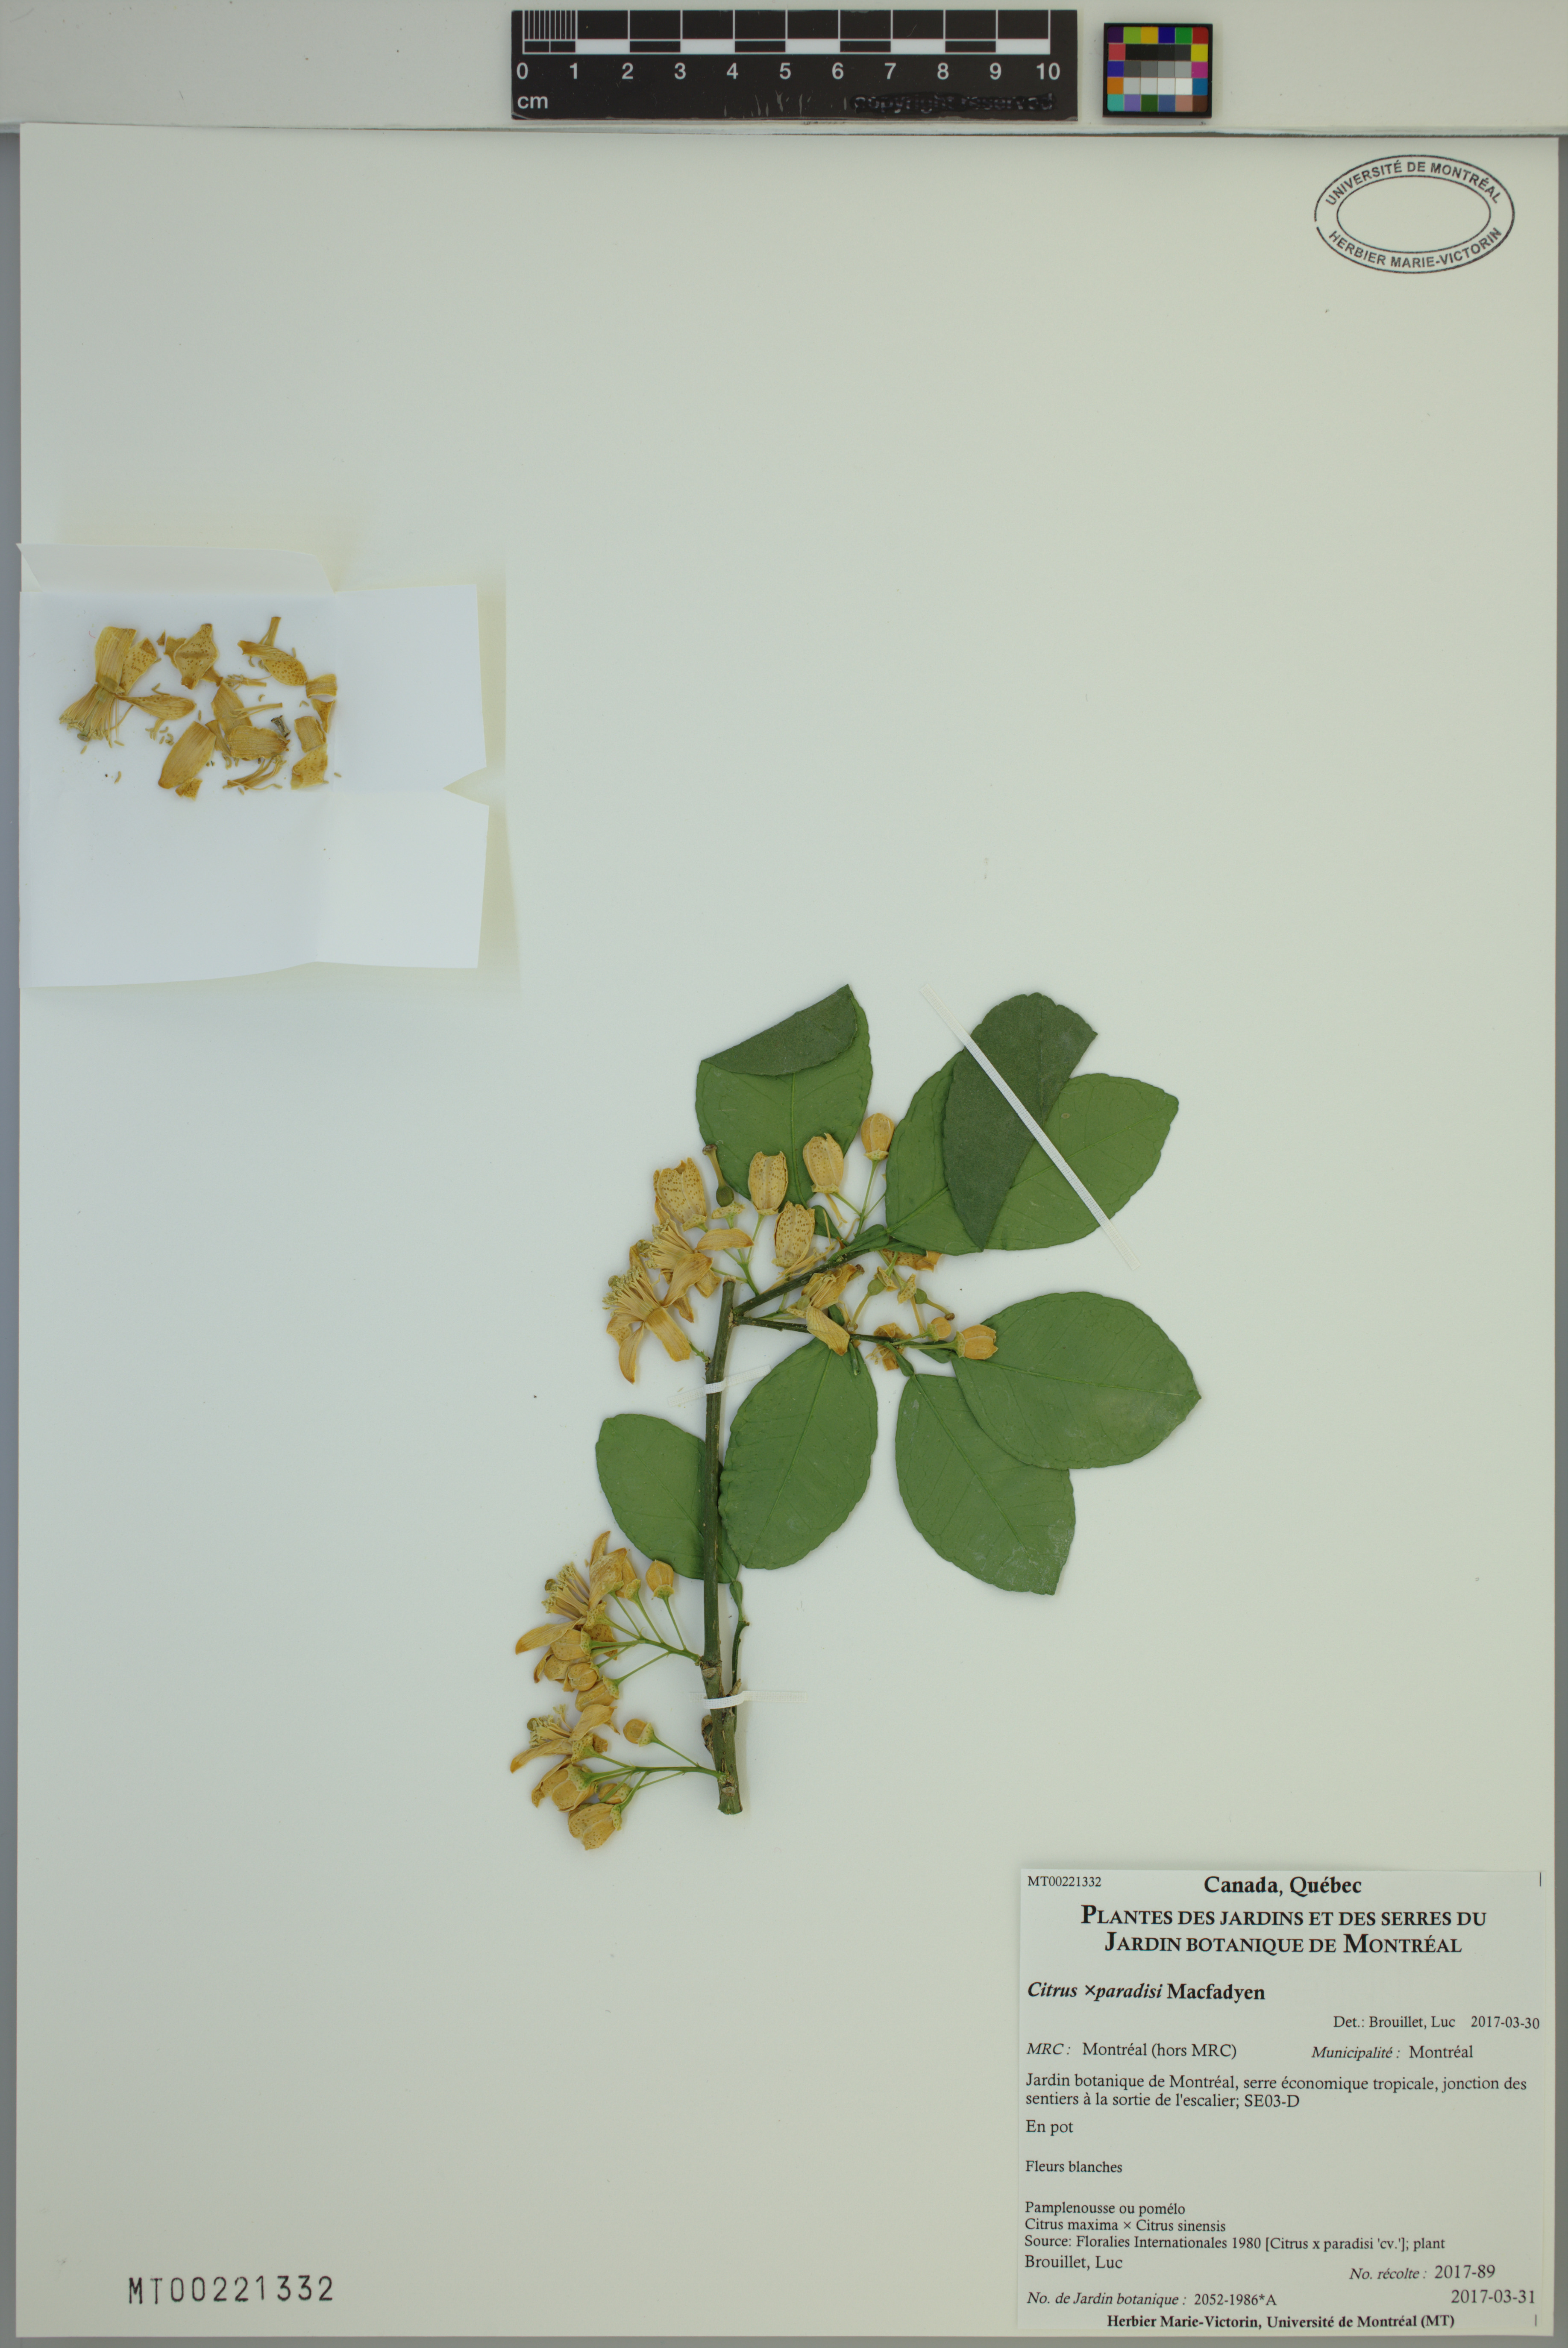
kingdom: Plantae
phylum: Tracheophyta
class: Magnoliopsida
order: Sapindales
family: Rutaceae
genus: Citrus
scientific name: Citrus aurantium
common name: Sour orange
